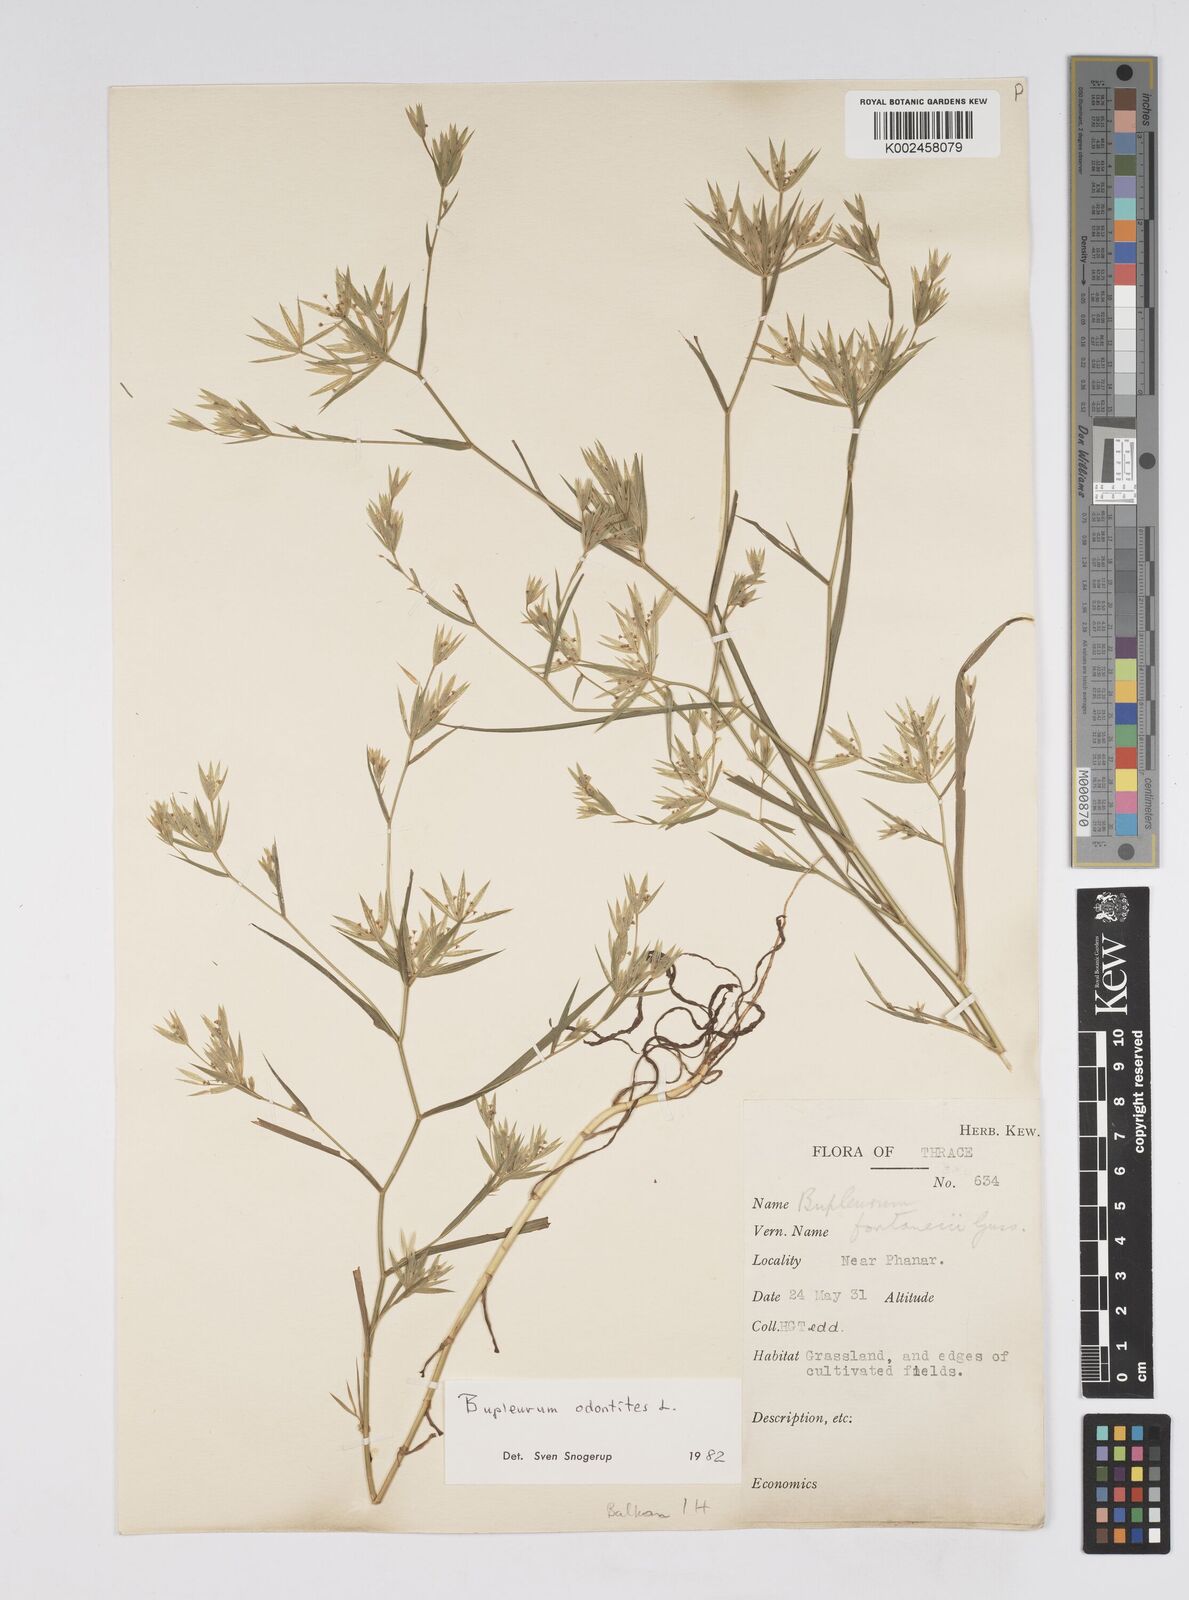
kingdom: Plantae
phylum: Tracheophyta
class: Magnoliopsida
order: Apiales
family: Apiaceae
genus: Bupleurum
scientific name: Bupleurum baldense
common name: Small hare's-ear
